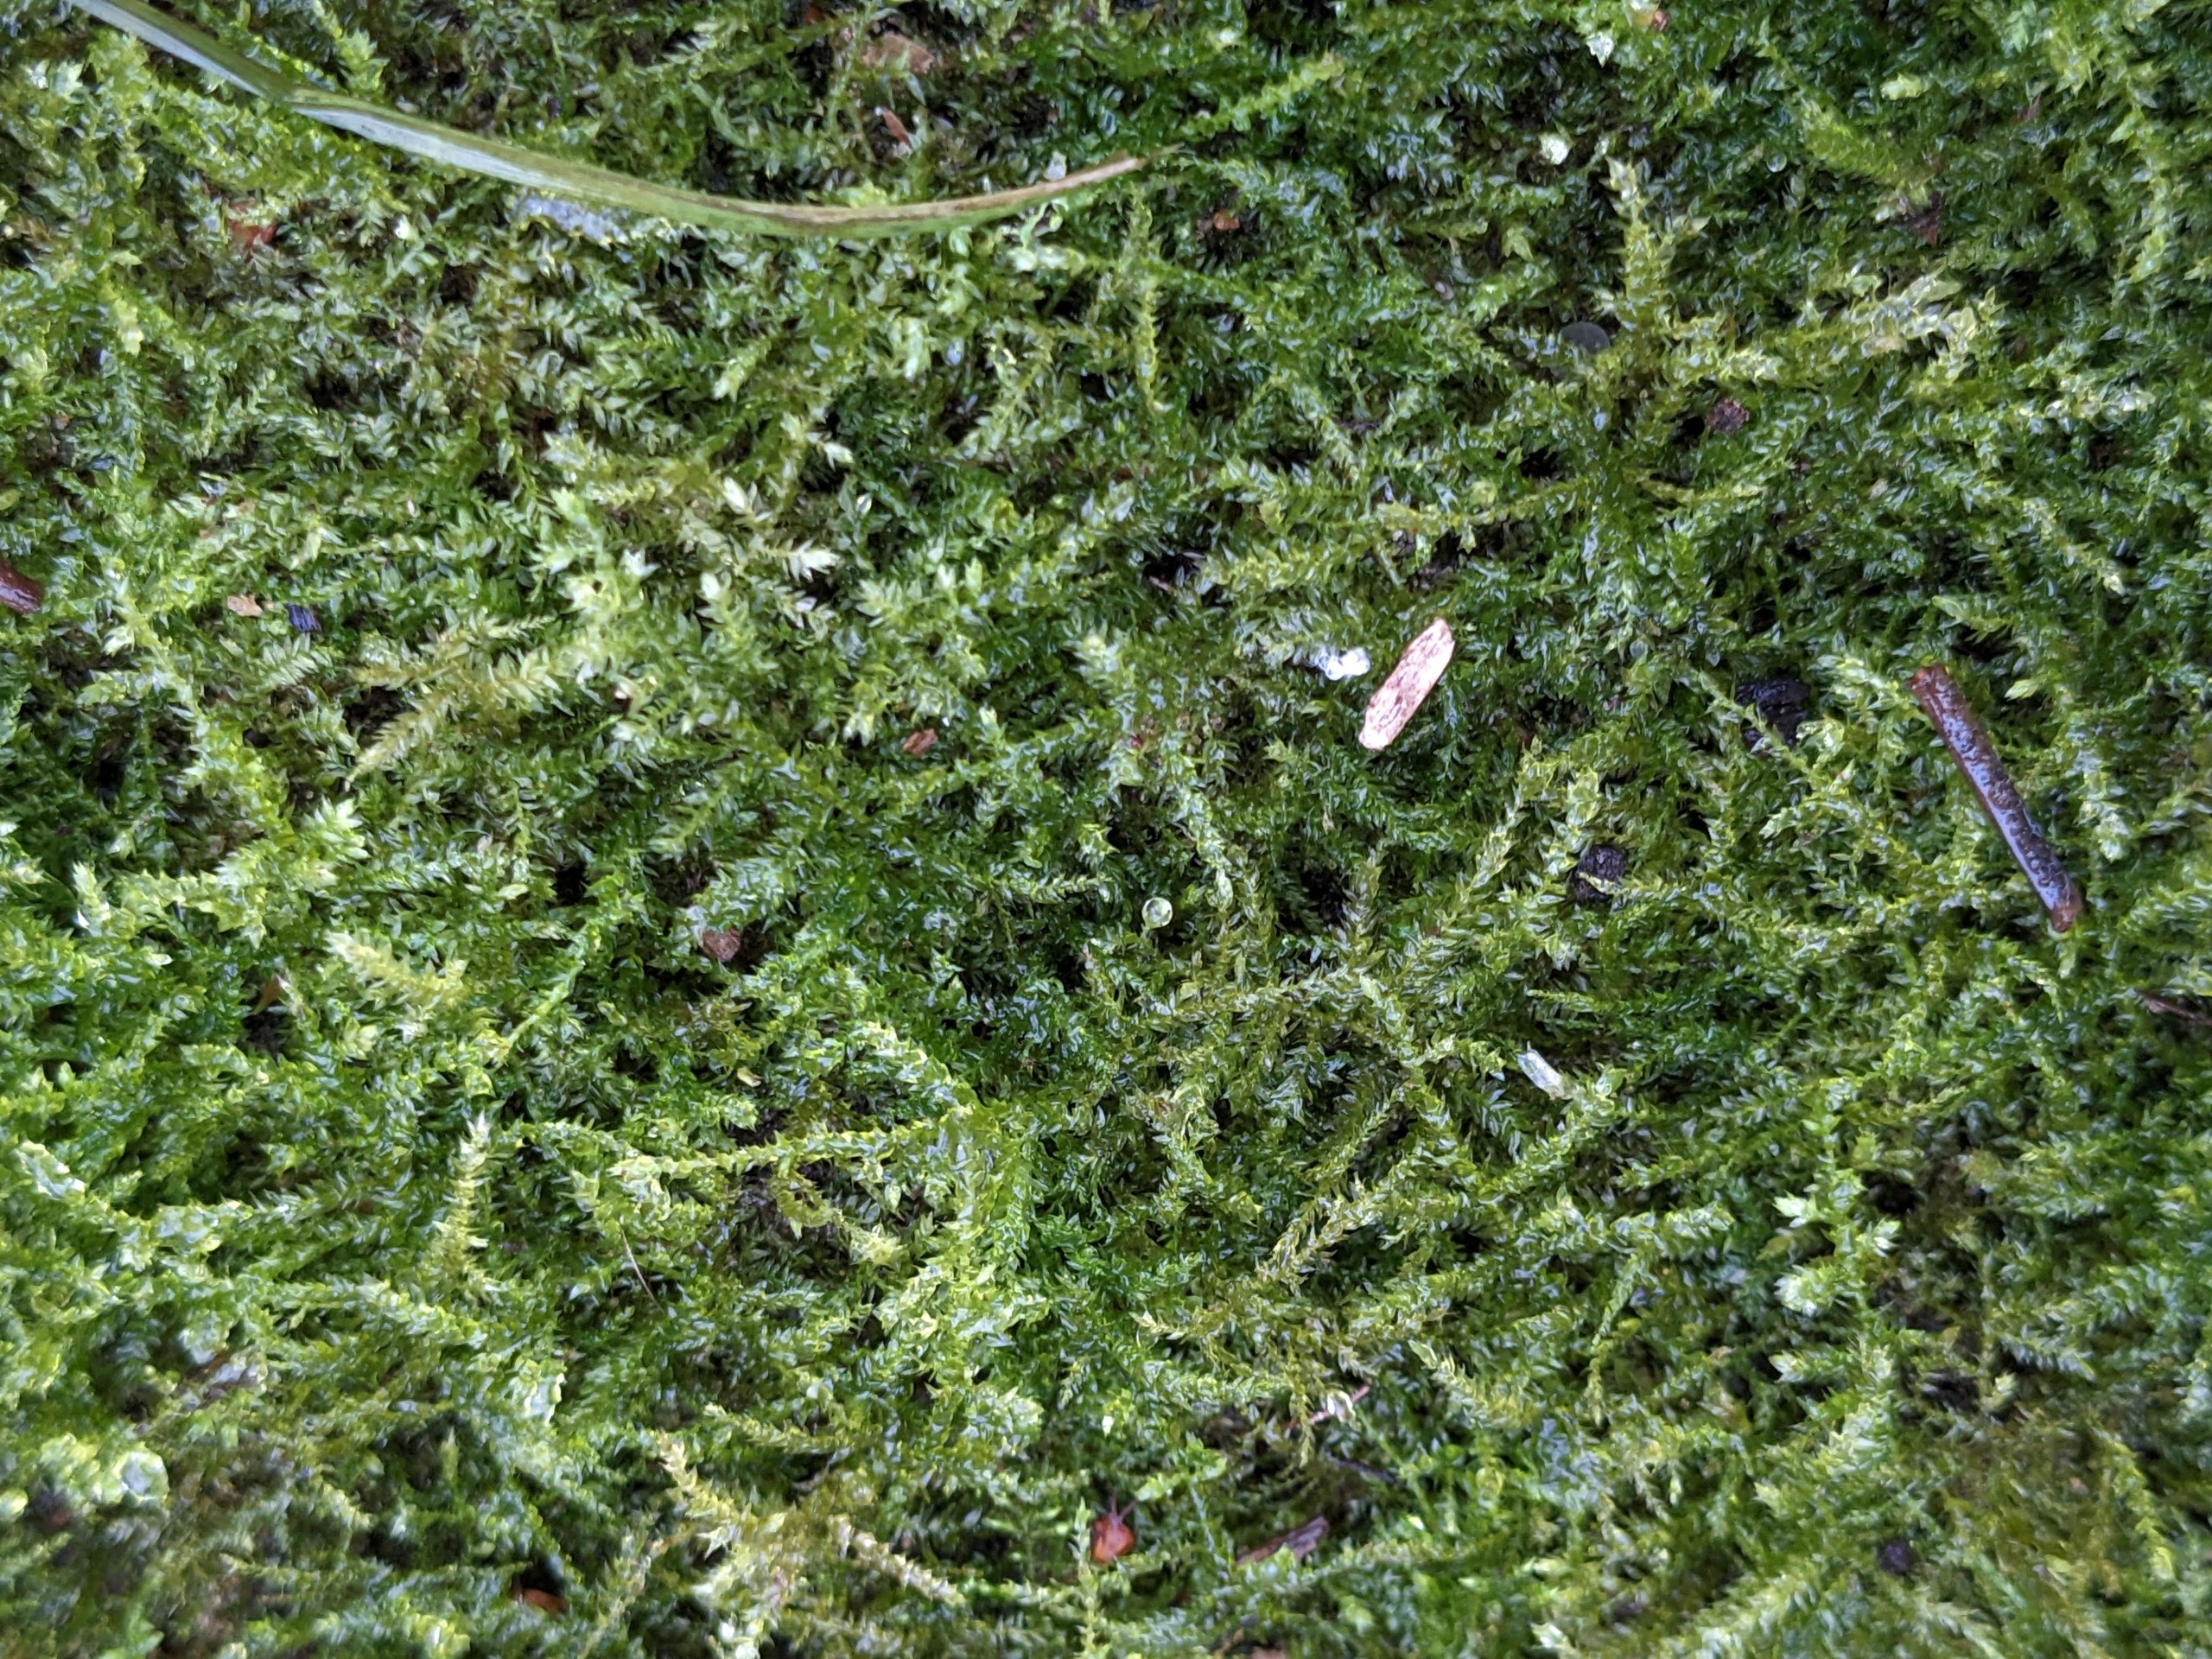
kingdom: Plantae
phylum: Bryophyta
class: Bryopsida
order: Hypnales
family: Brachytheciaceae
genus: Oxyrrhynchium
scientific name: Oxyrrhynchium hians
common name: Ler-vortetand
